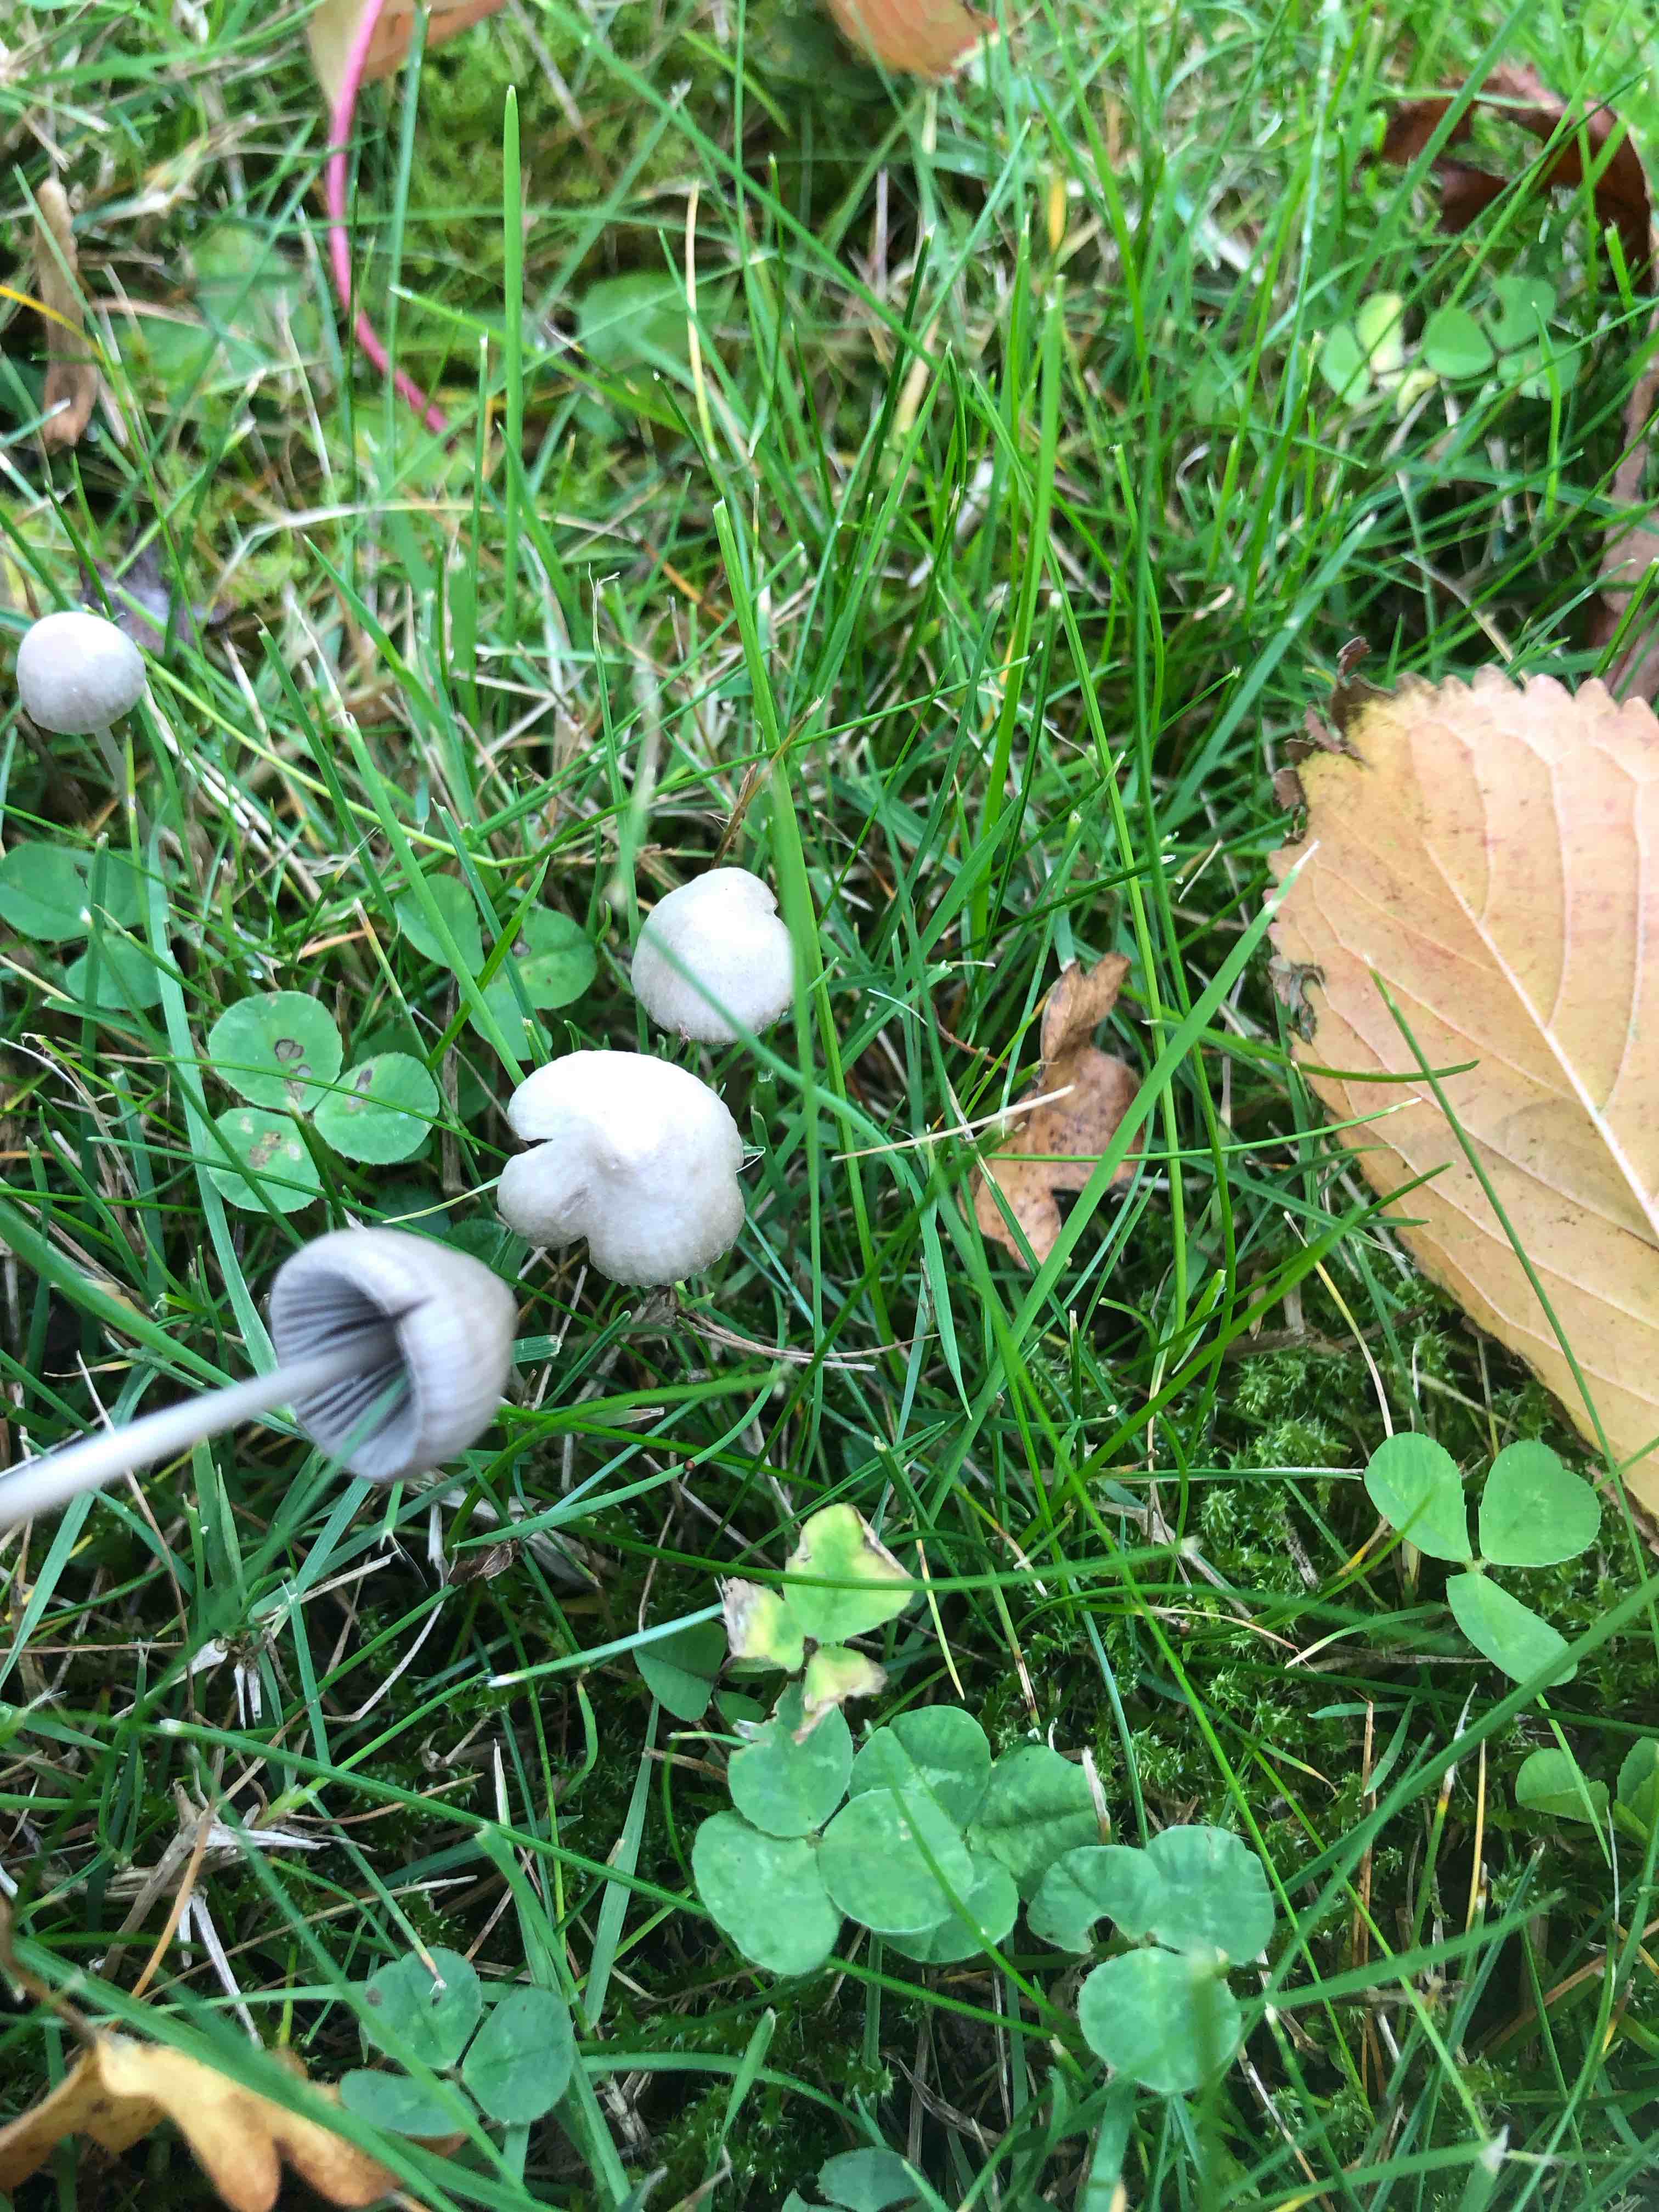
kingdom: Fungi
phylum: Basidiomycota
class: Agaricomycetes
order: Agaricales
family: Mycenaceae
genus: Mycena
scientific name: Mycena
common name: huesvamp
